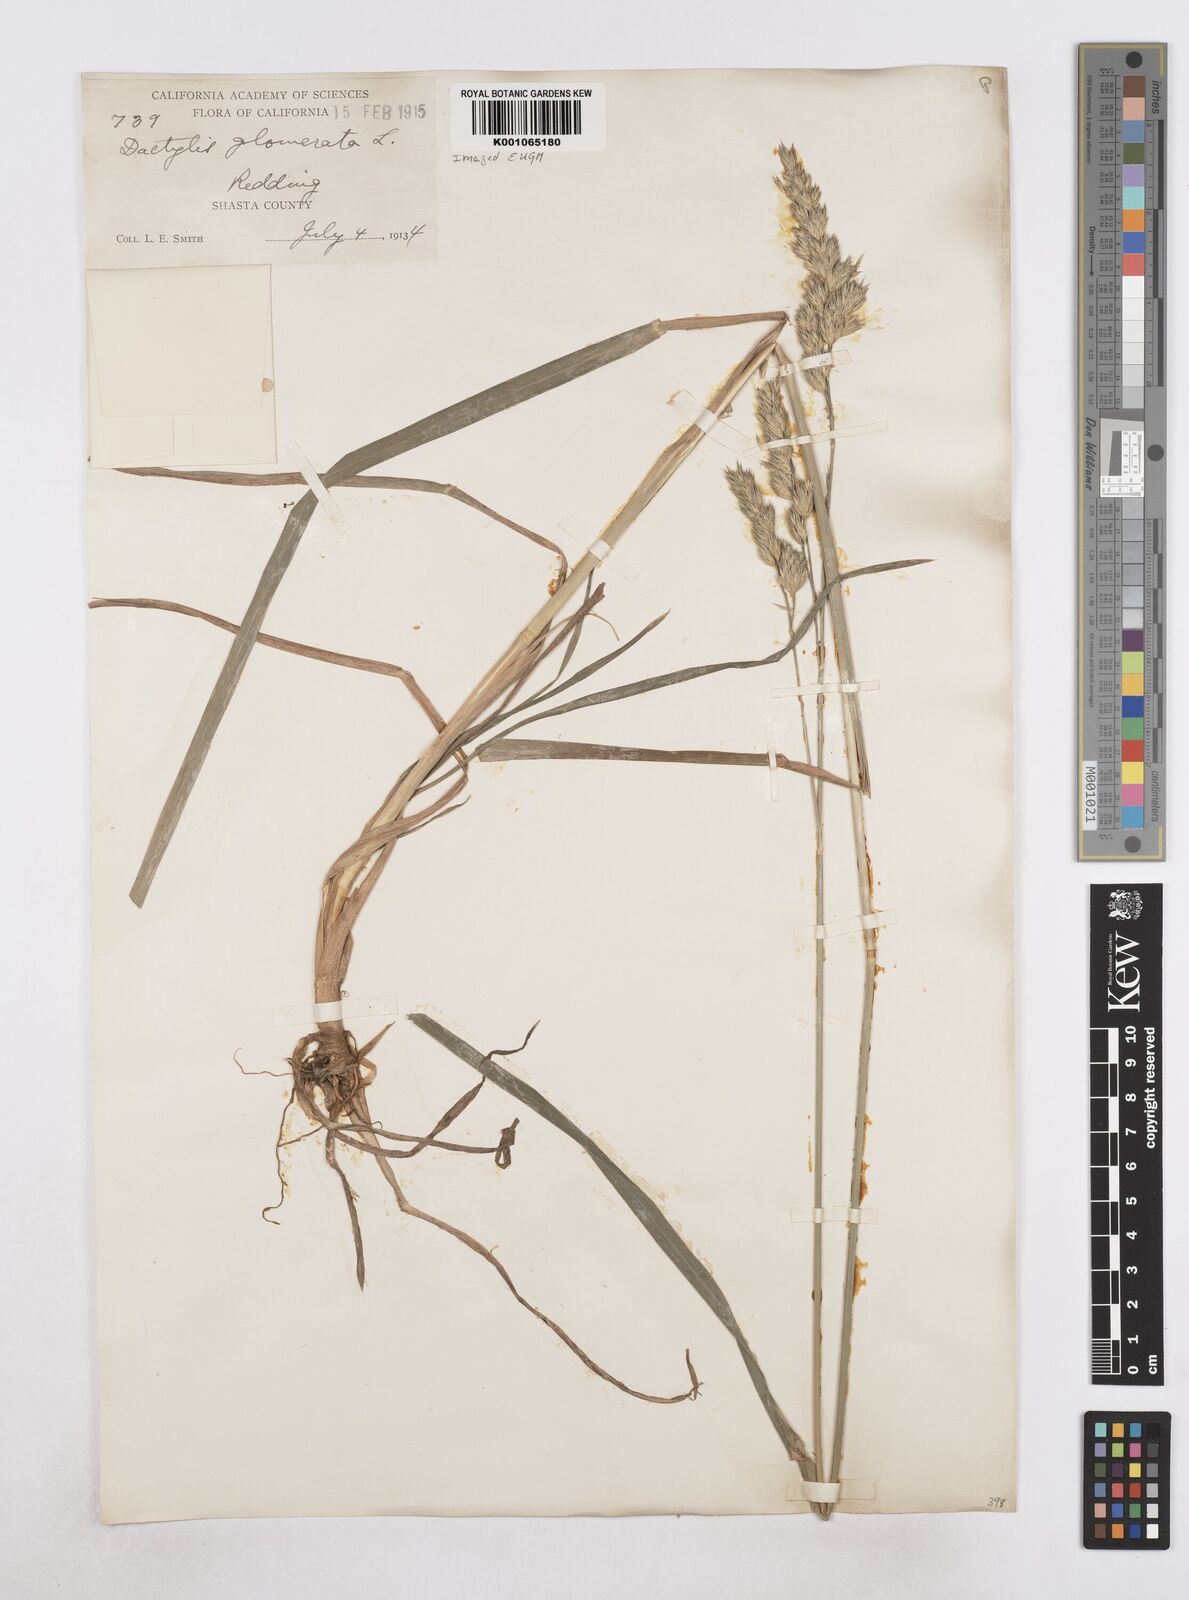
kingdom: Plantae
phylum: Tracheophyta
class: Liliopsida
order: Poales
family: Poaceae
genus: Dactylis
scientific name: Dactylis glomerata
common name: Orchardgrass
